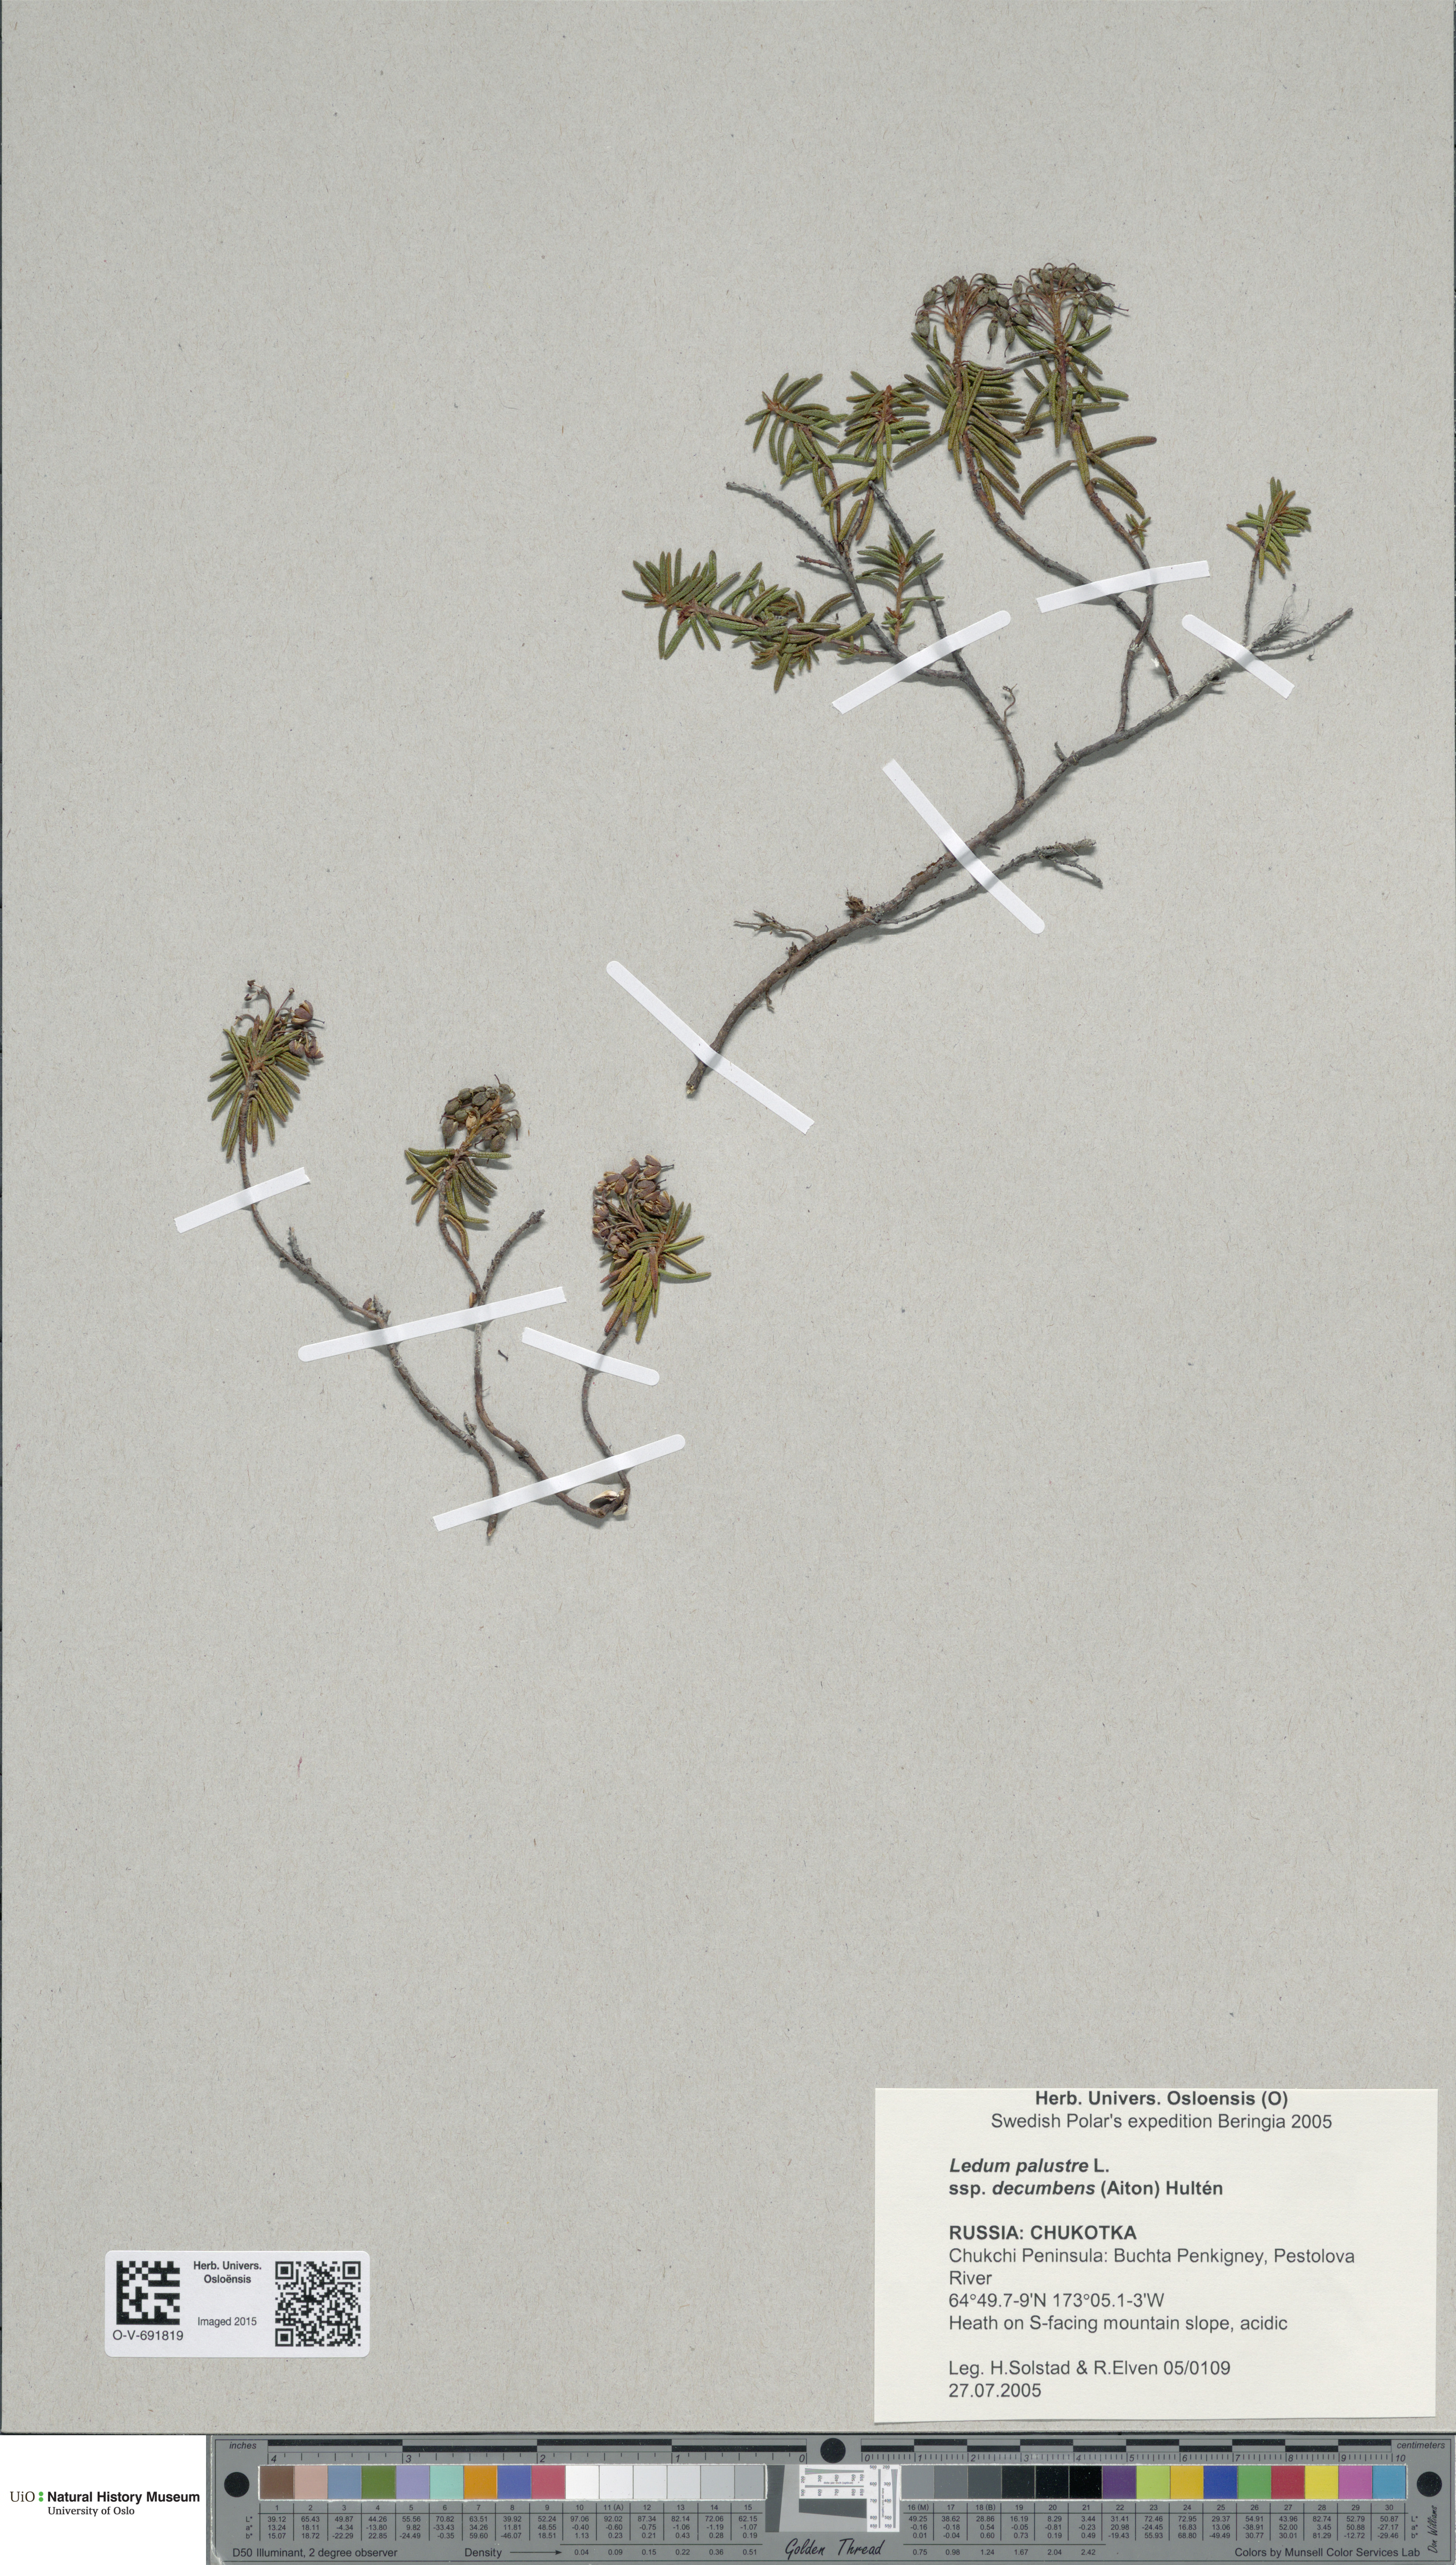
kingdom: Plantae
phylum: Tracheophyta
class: Magnoliopsida
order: Ericales
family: Ericaceae
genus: Rhododendron
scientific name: Rhododendron tomentosum
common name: Marsh labrador tea
